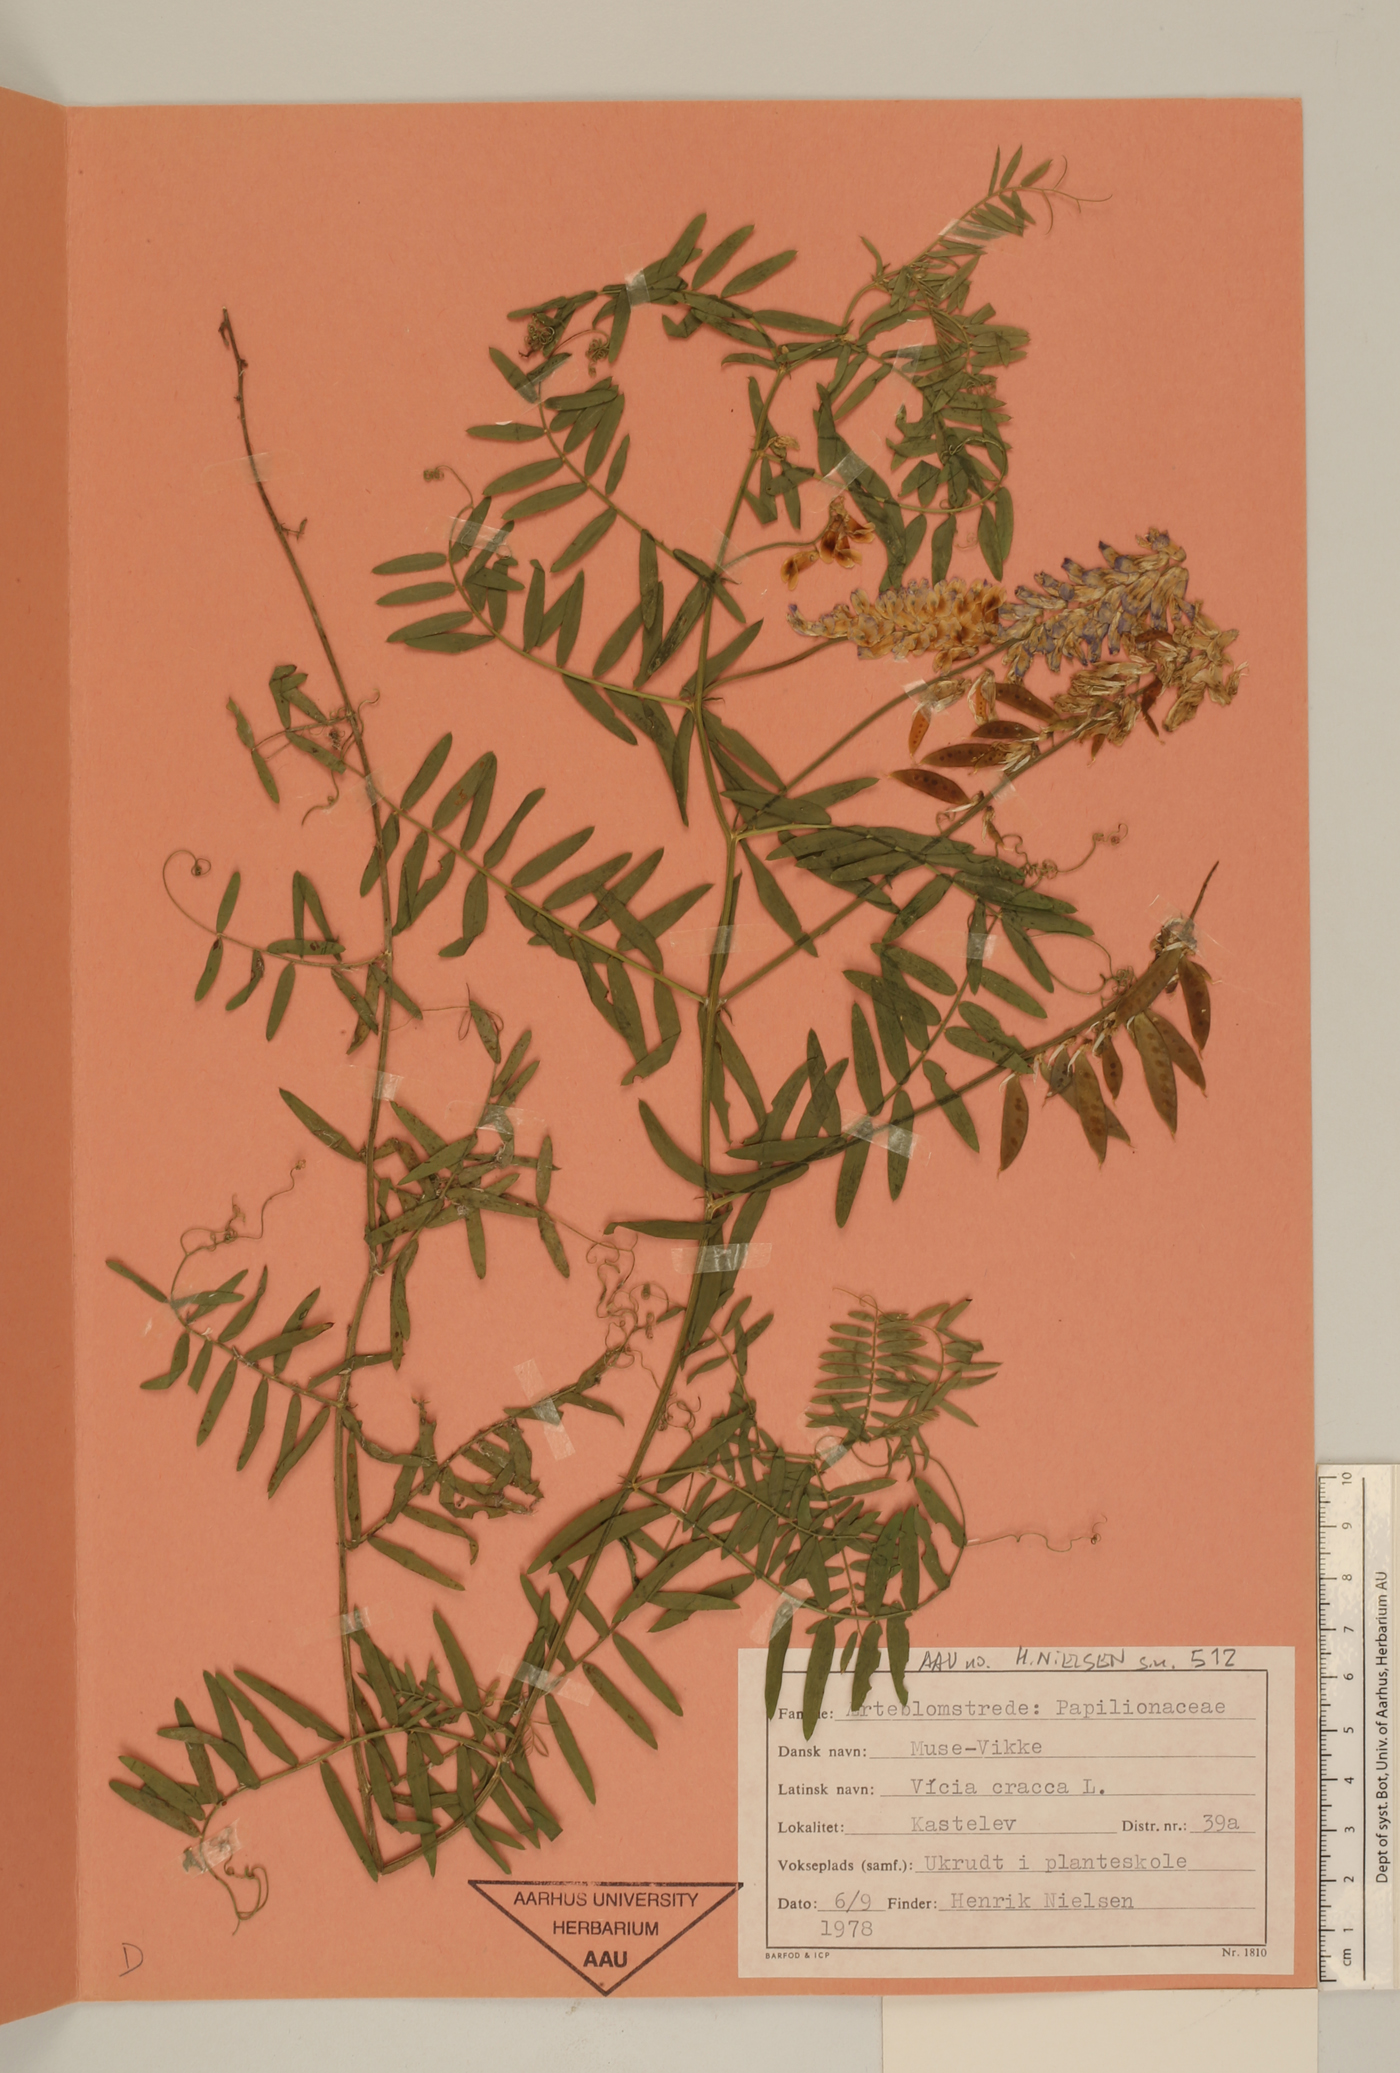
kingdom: Plantae
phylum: Tracheophyta
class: Magnoliopsida
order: Fabales
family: Fabaceae
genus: Vicia
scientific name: Vicia cracca
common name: Bird vetch
